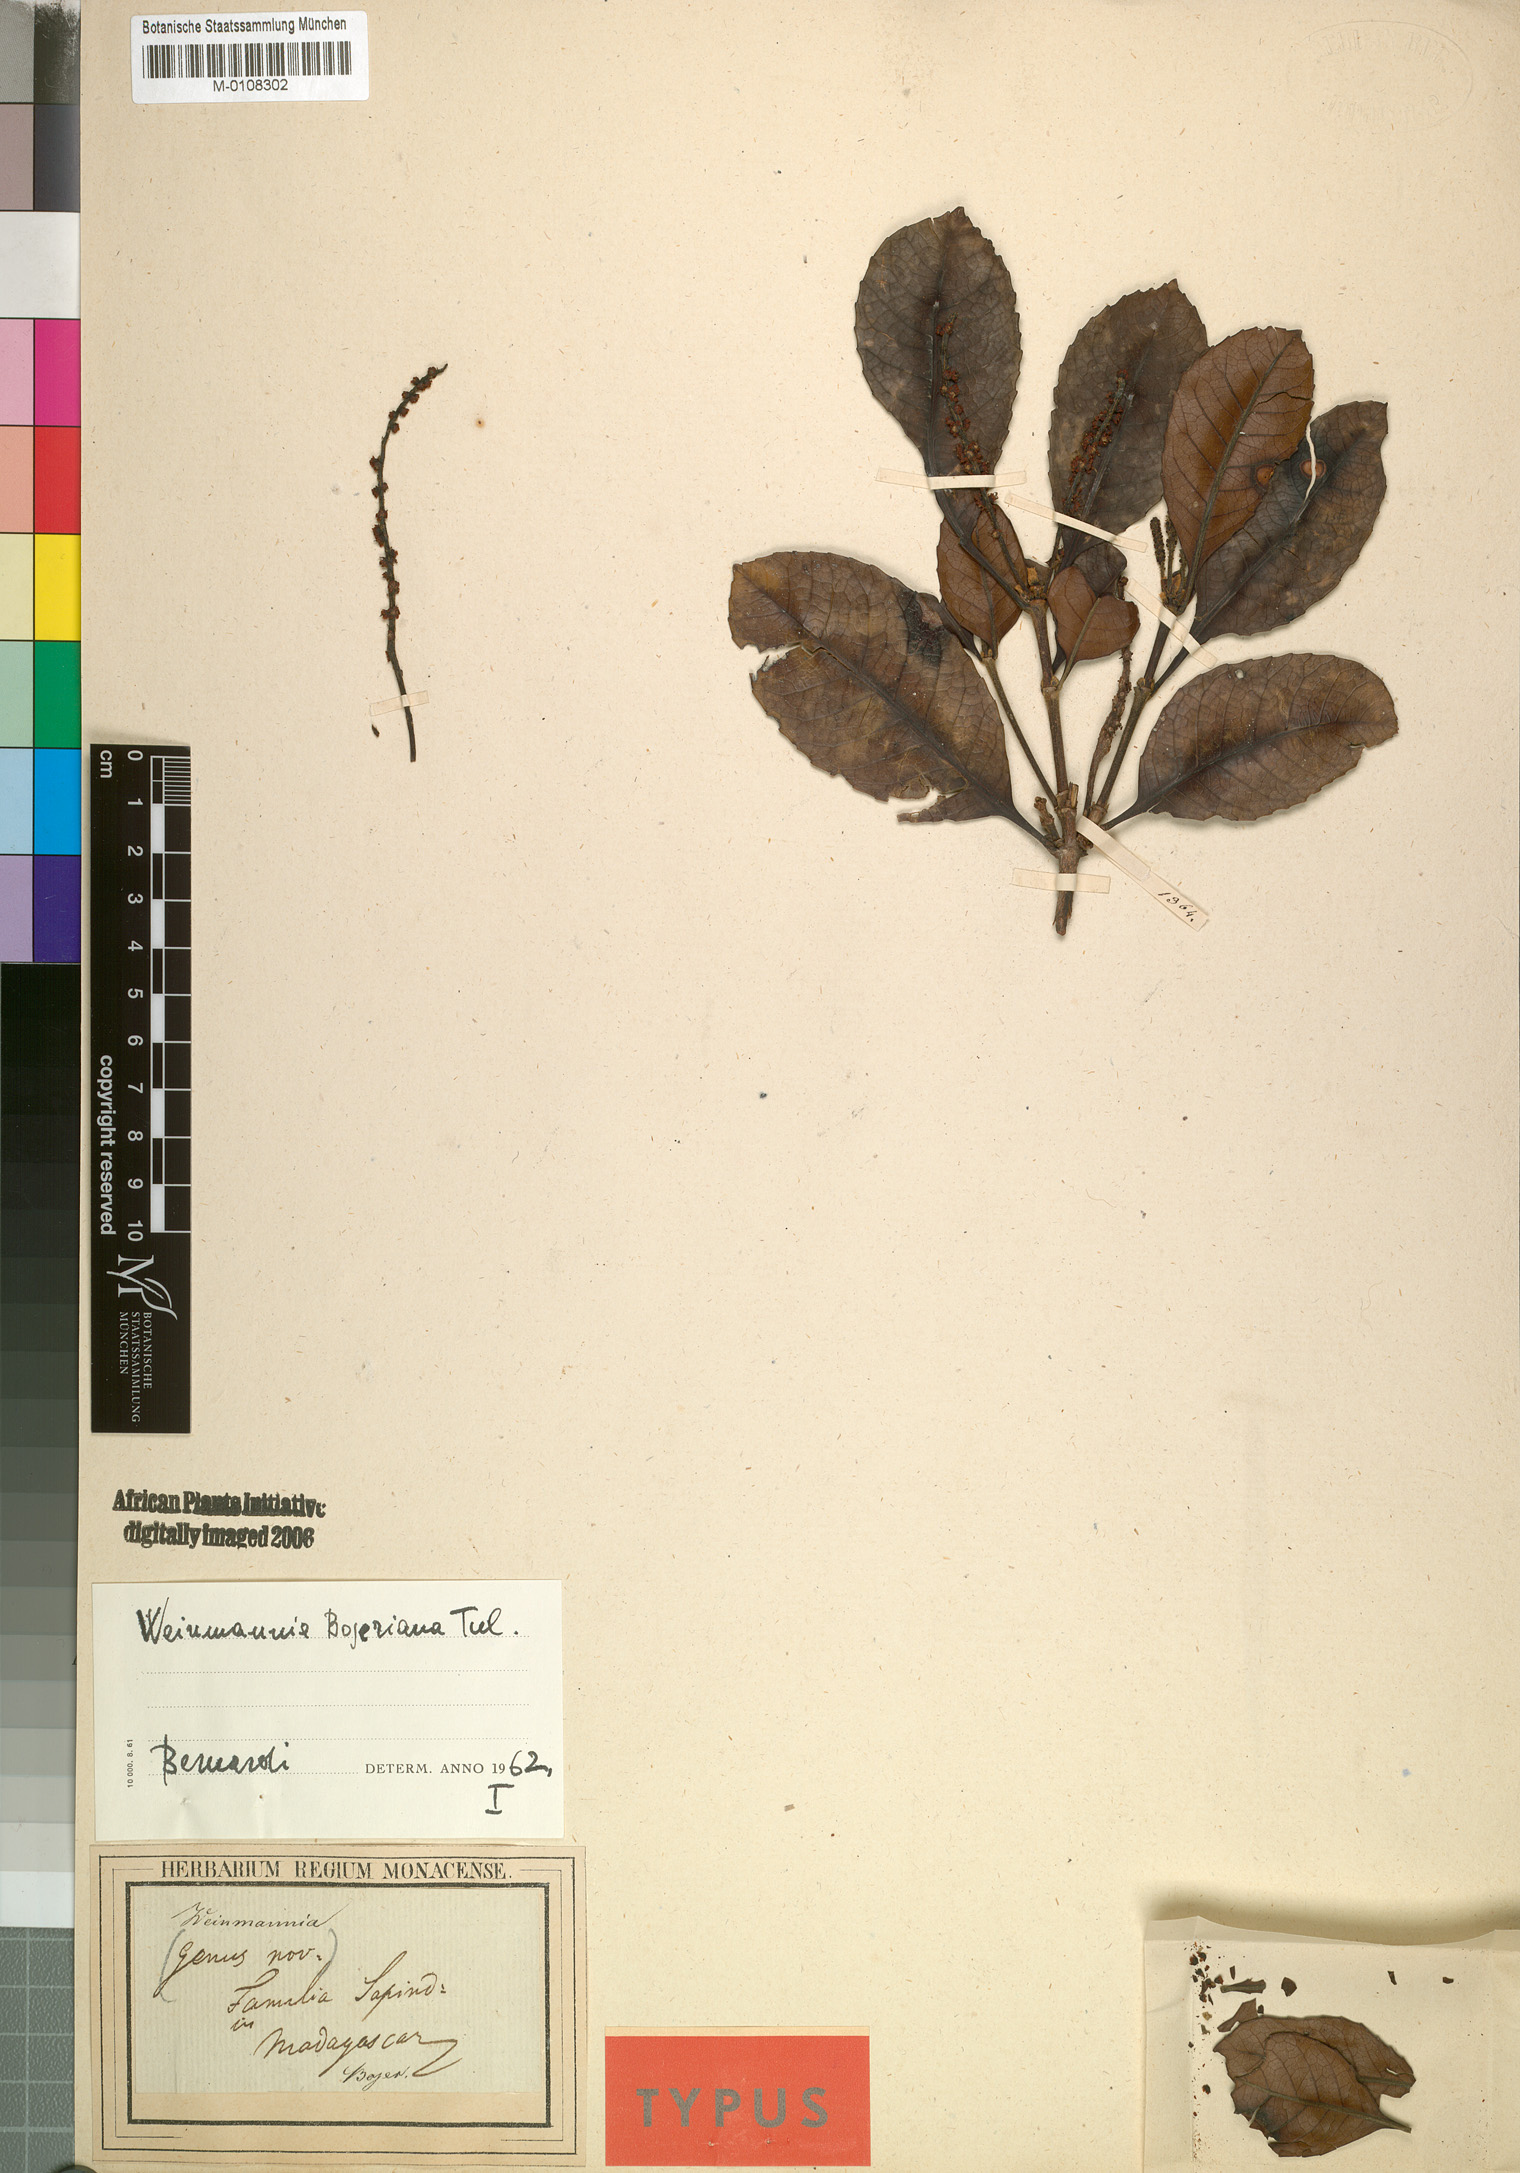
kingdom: Plantae
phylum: Tracheophyta
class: Magnoliopsida
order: Oxalidales
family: Cunoniaceae
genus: Pterophylla
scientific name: Pterophylla bojeriana
